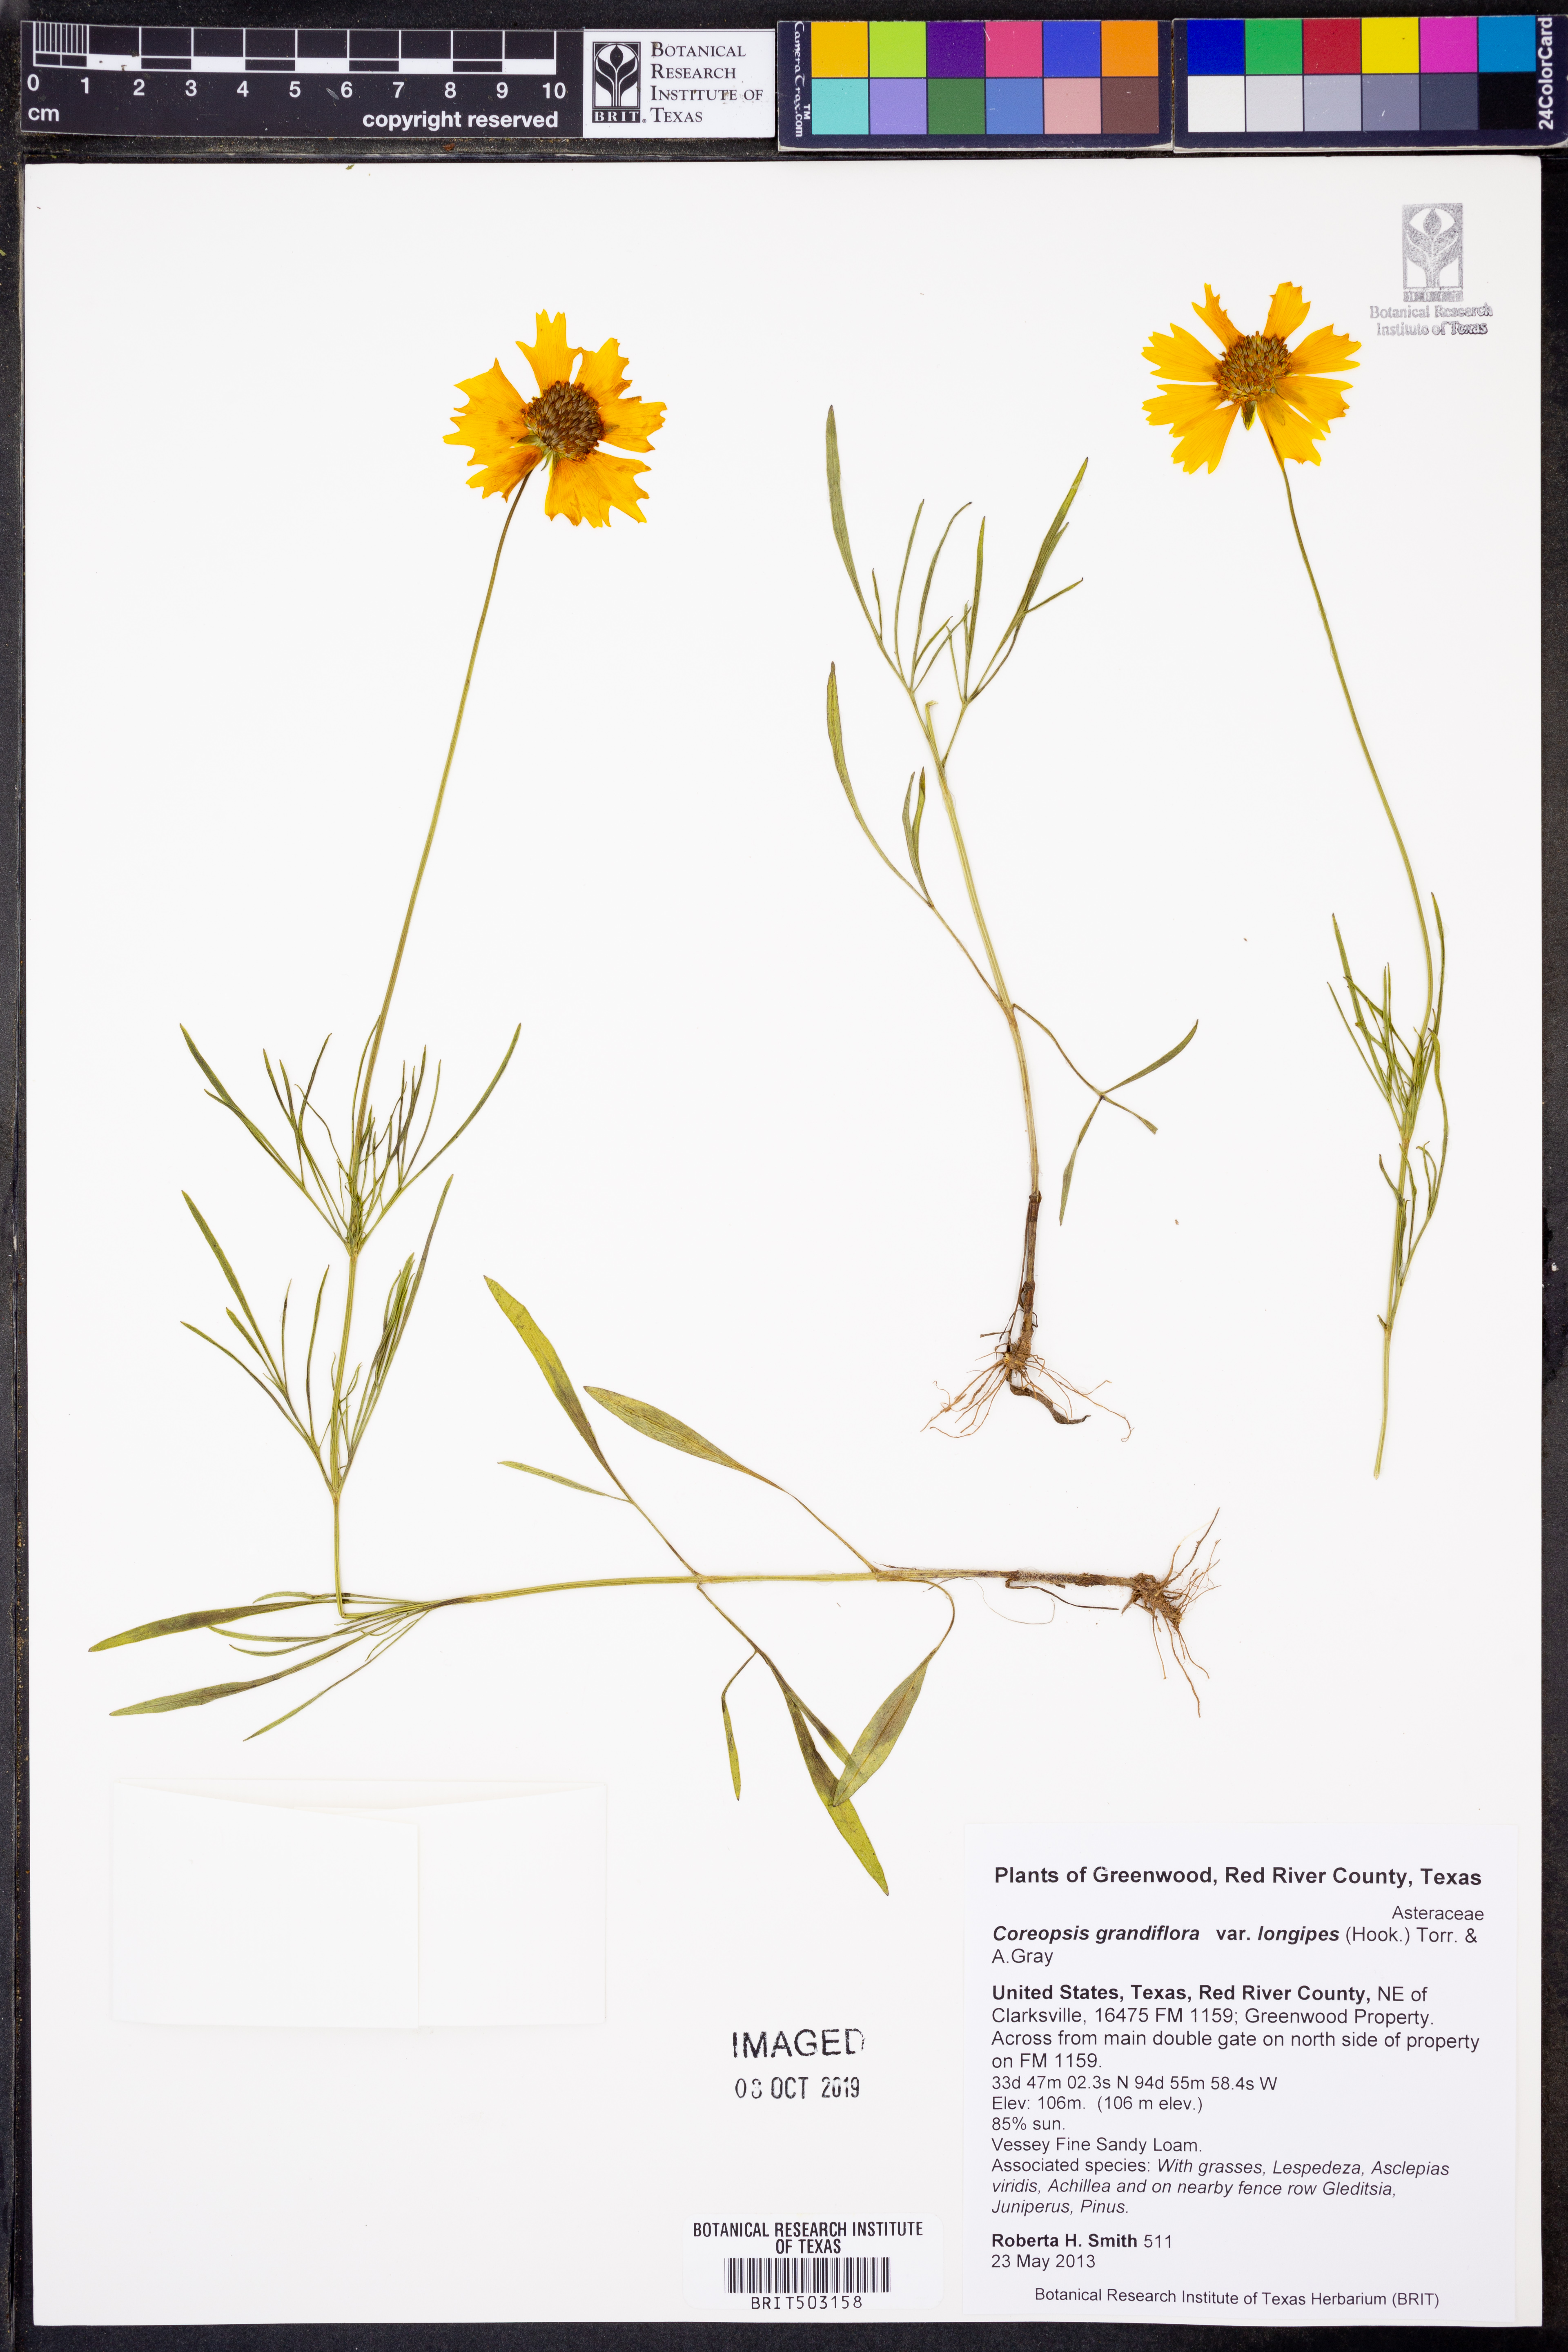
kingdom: Plantae
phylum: Tracheophyta
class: Magnoliopsida
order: Asterales
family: Asteraceae
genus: Coreopsis
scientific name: Coreopsis grandiflora
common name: Large-flowered tickseed
